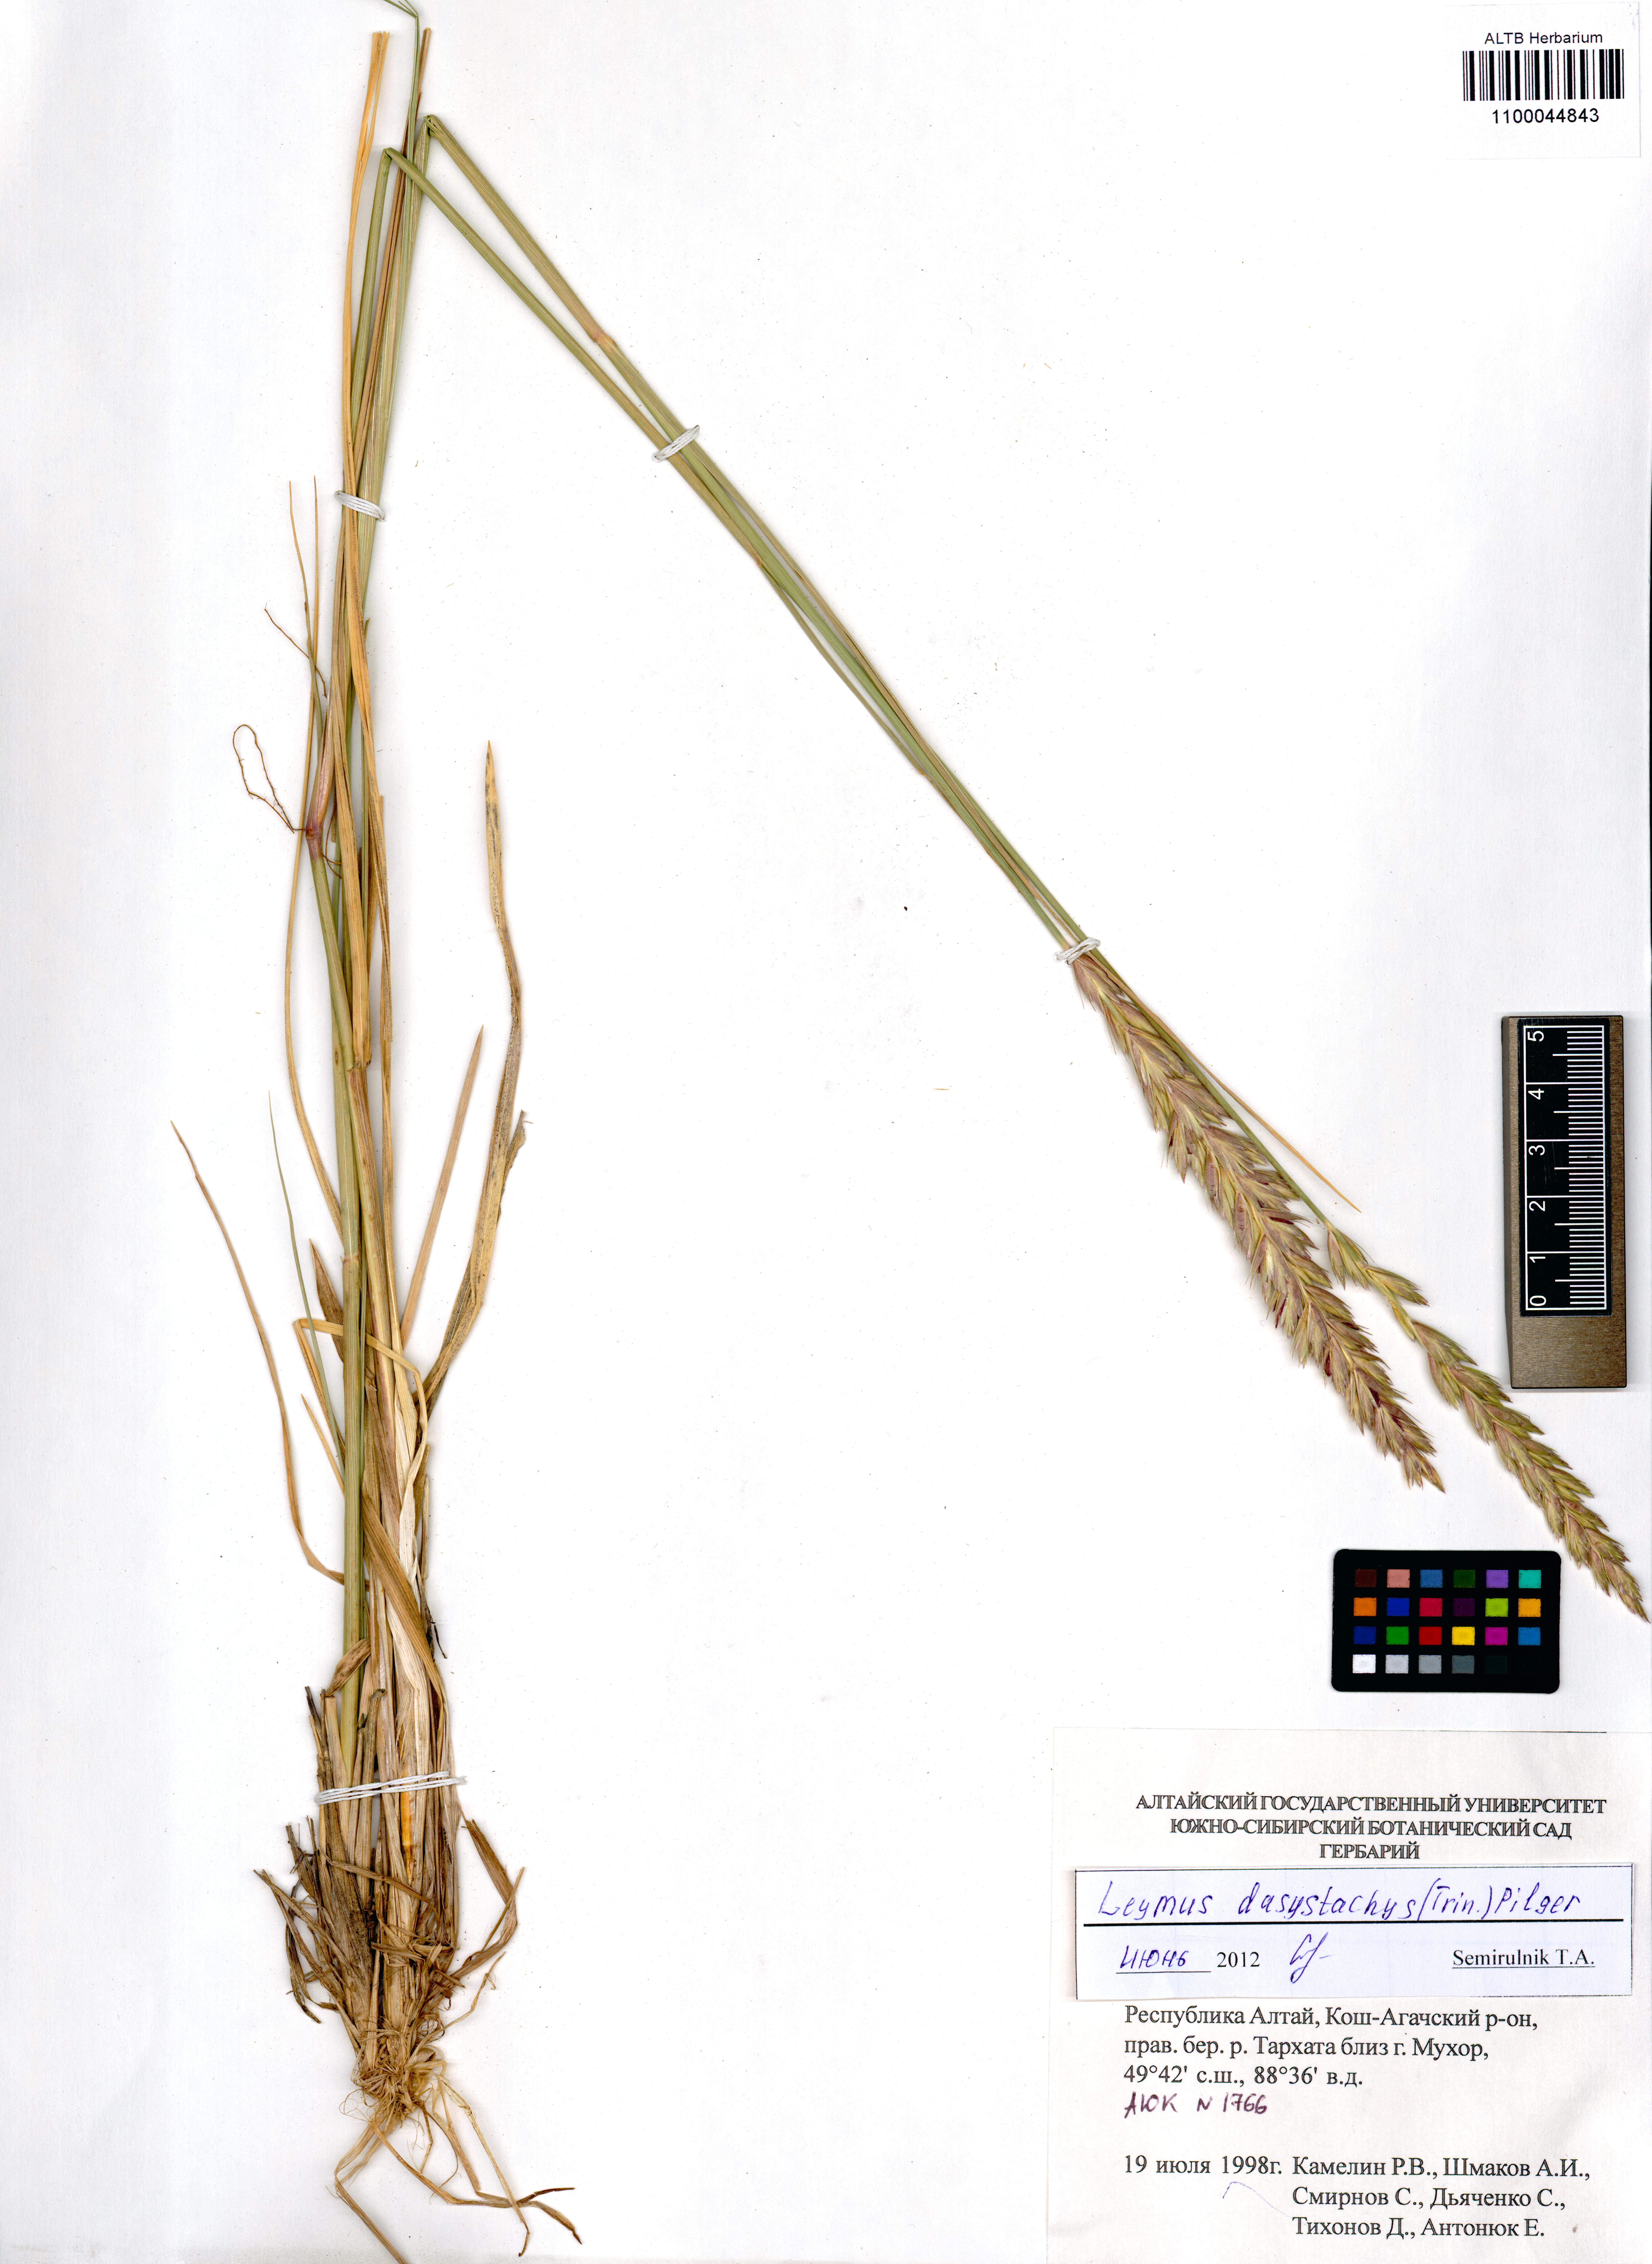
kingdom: Plantae
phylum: Tracheophyta
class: Liliopsida
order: Poales
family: Poaceae
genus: Leymus
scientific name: Leymus secalinus
